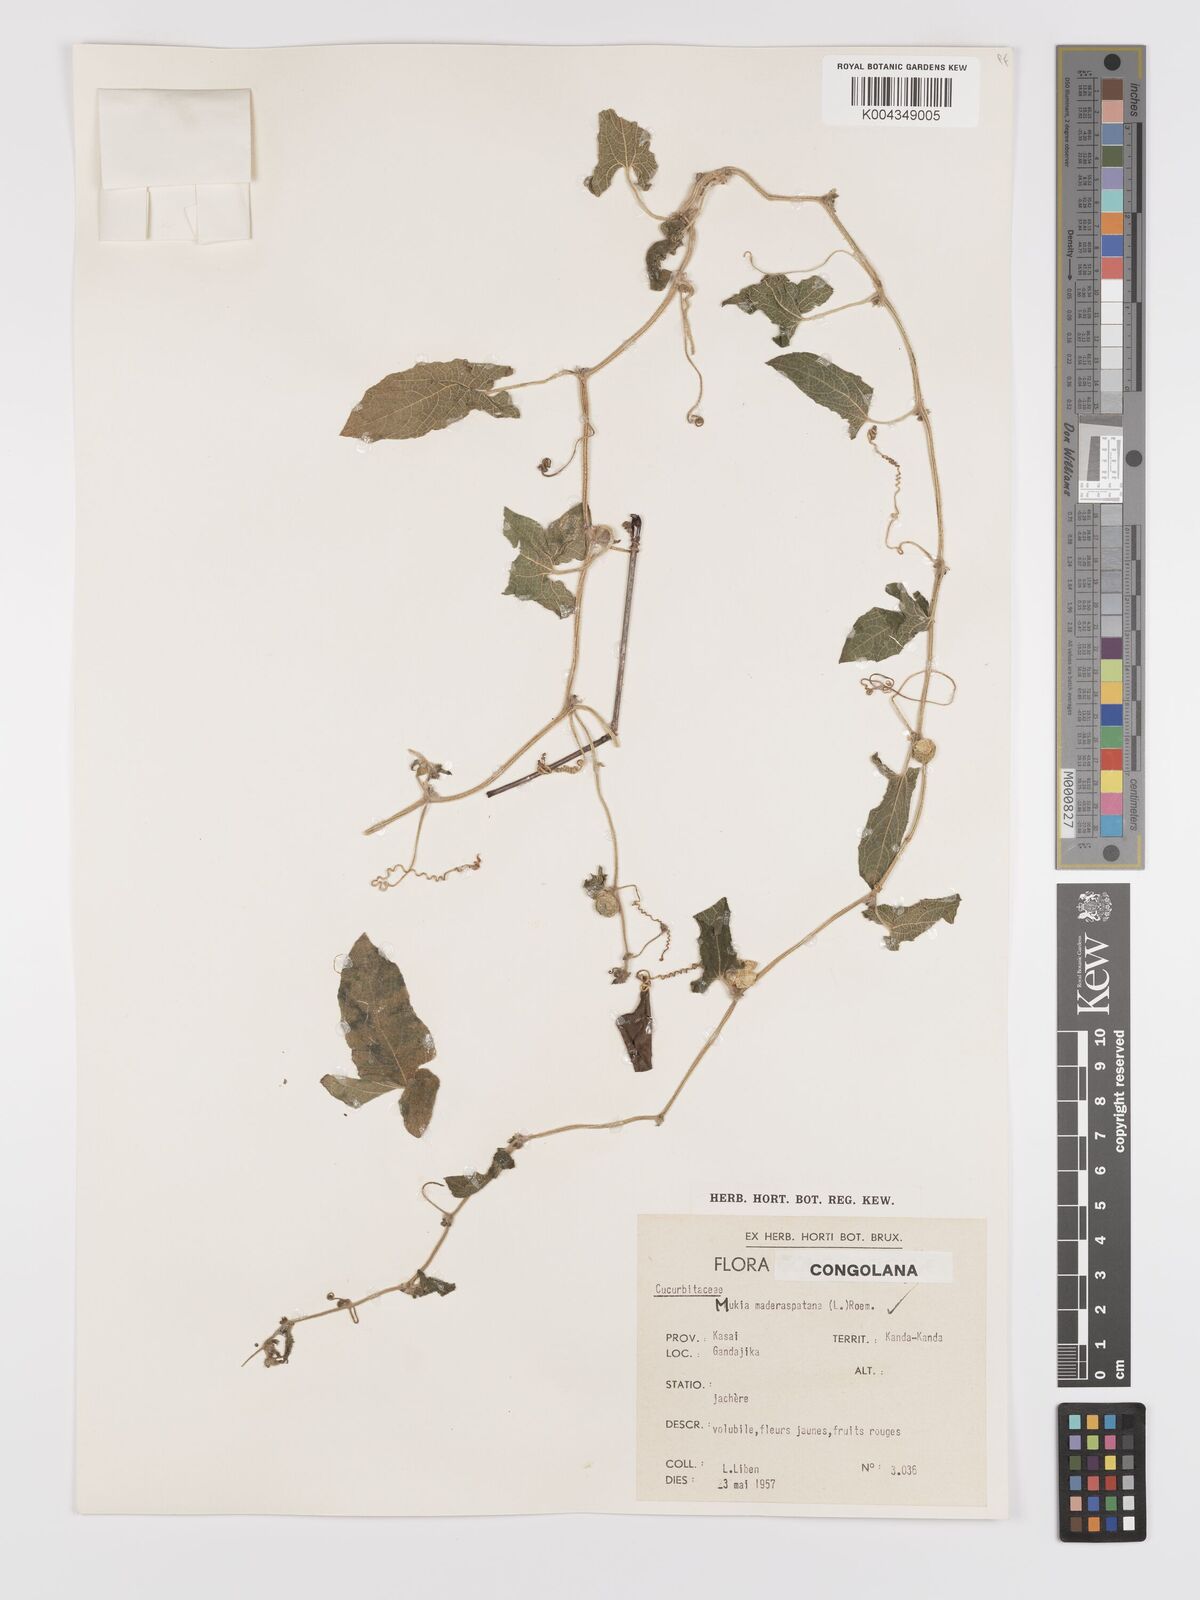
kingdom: Plantae
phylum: Tracheophyta
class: Magnoliopsida
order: Cucurbitales
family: Cucurbitaceae
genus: Cucumis
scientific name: Cucumis maderaspatanus
